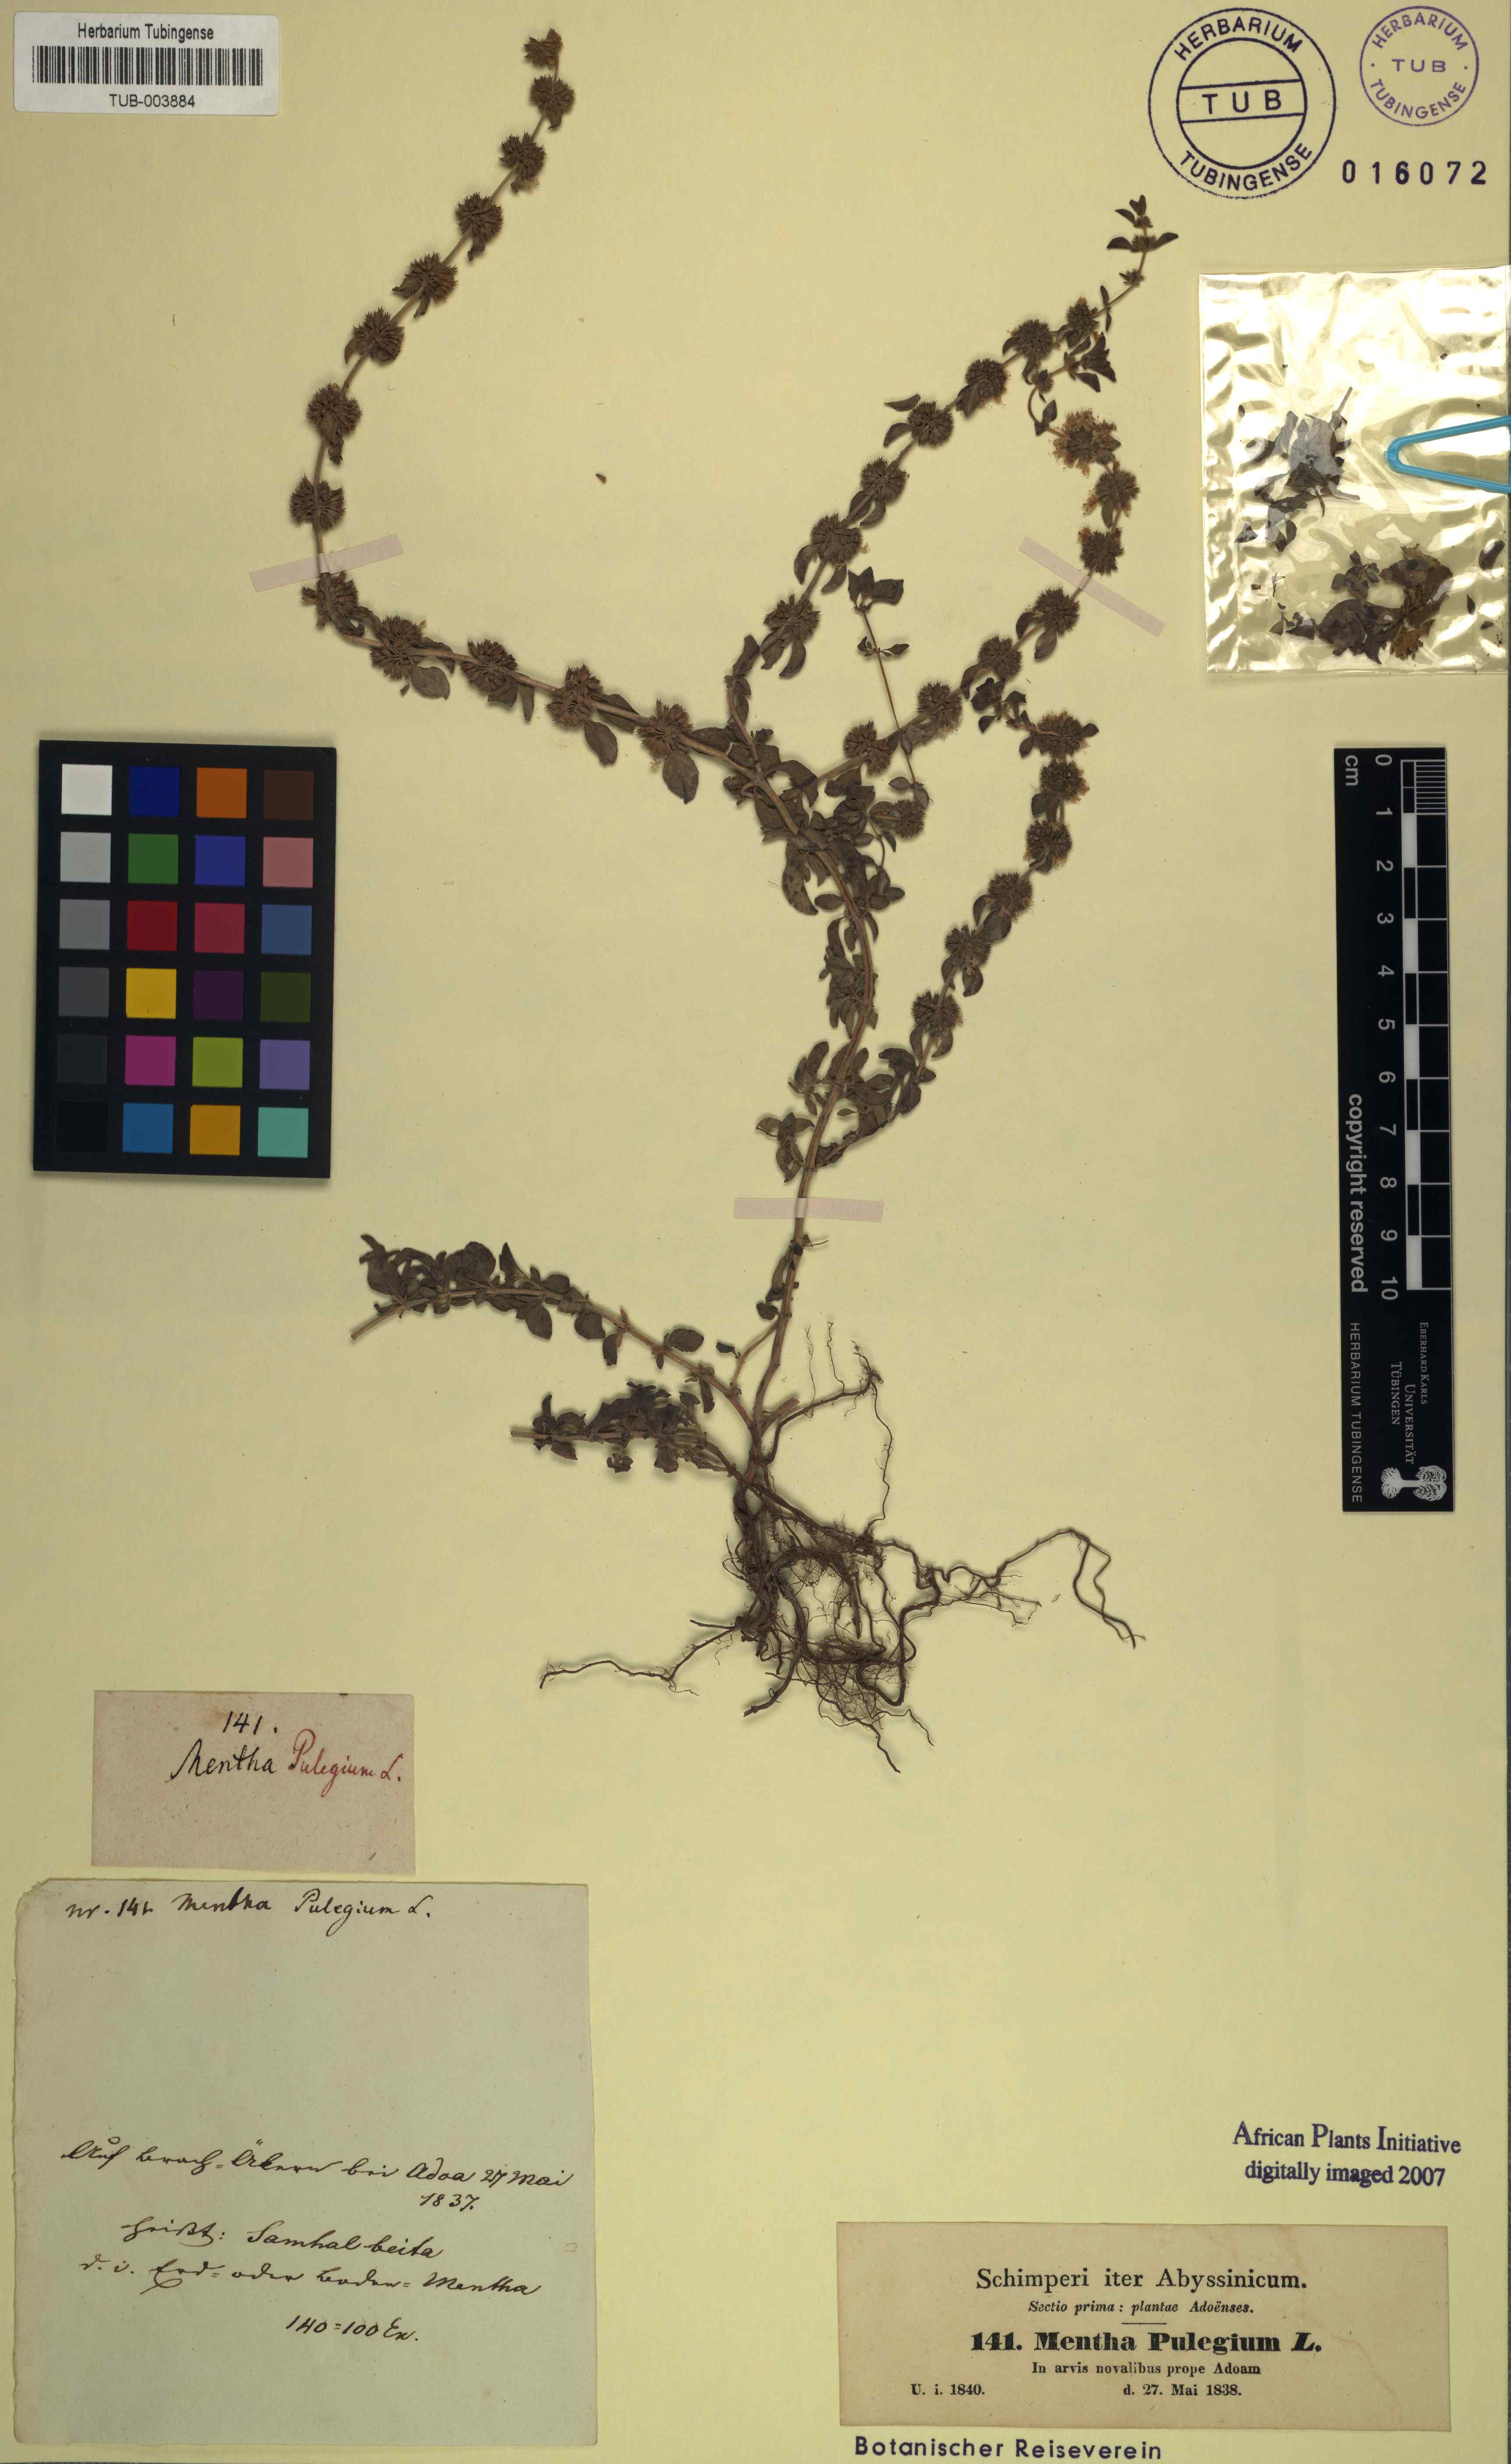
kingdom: Plantae
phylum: Tracheophyta
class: Magnoliopsida
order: Lamiales
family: Lamiaceae
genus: Mentha
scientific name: Mentha pulegium
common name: Pennyroyal
